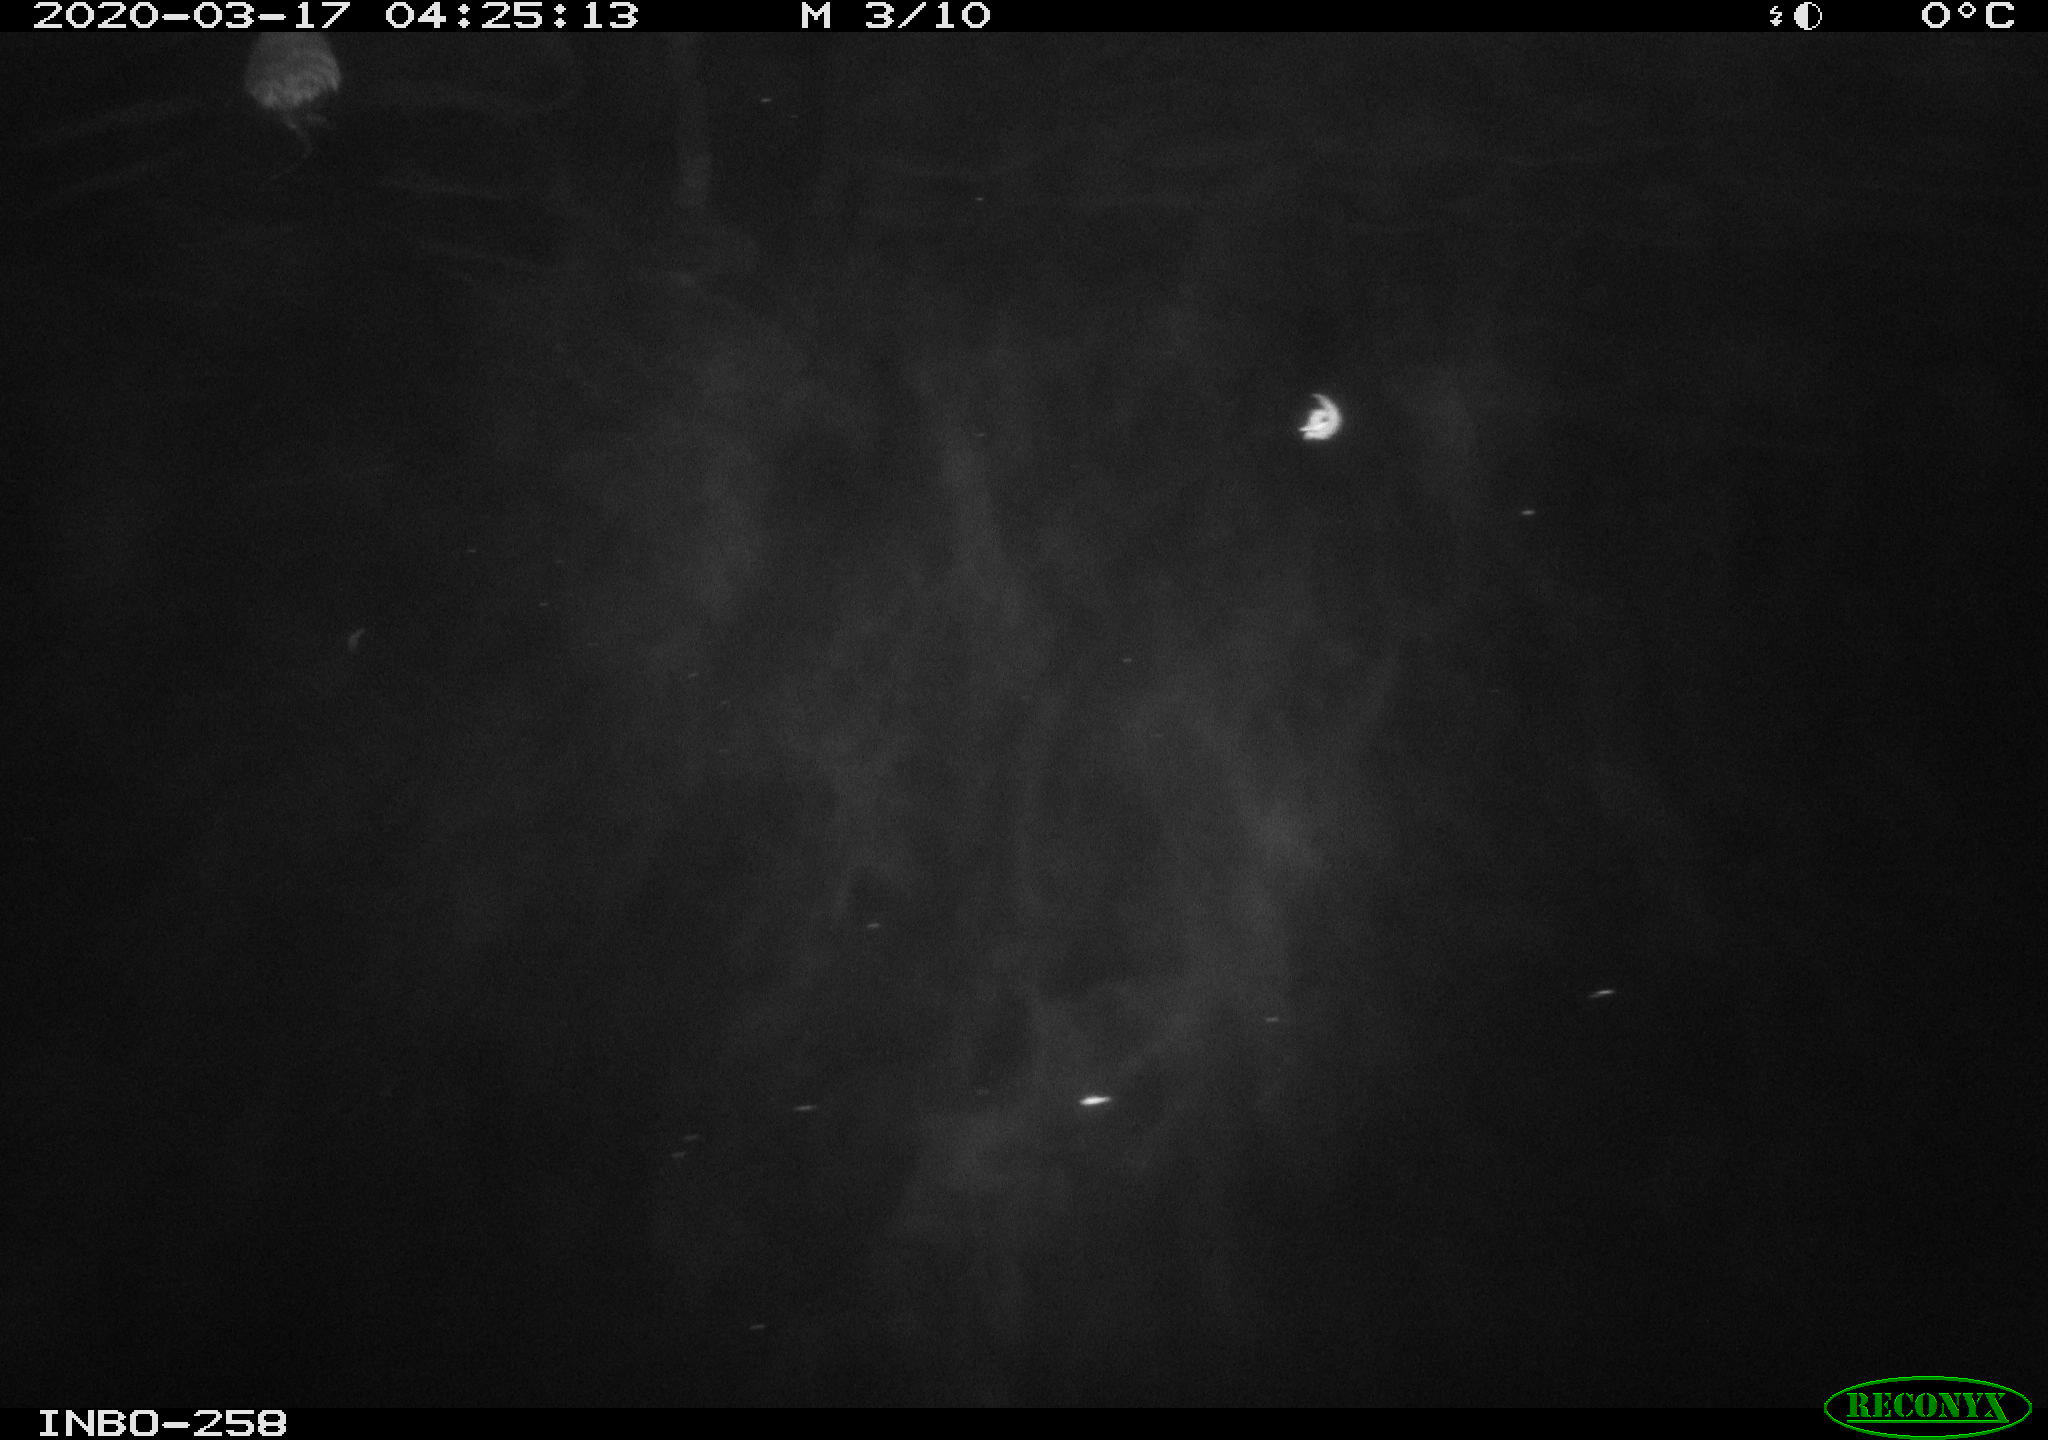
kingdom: Animalia
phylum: Chordata
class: Mammalia
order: Rodentia
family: Cricetidae
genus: Ondatra
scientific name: Ondatra zibethicus
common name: Muskrat
